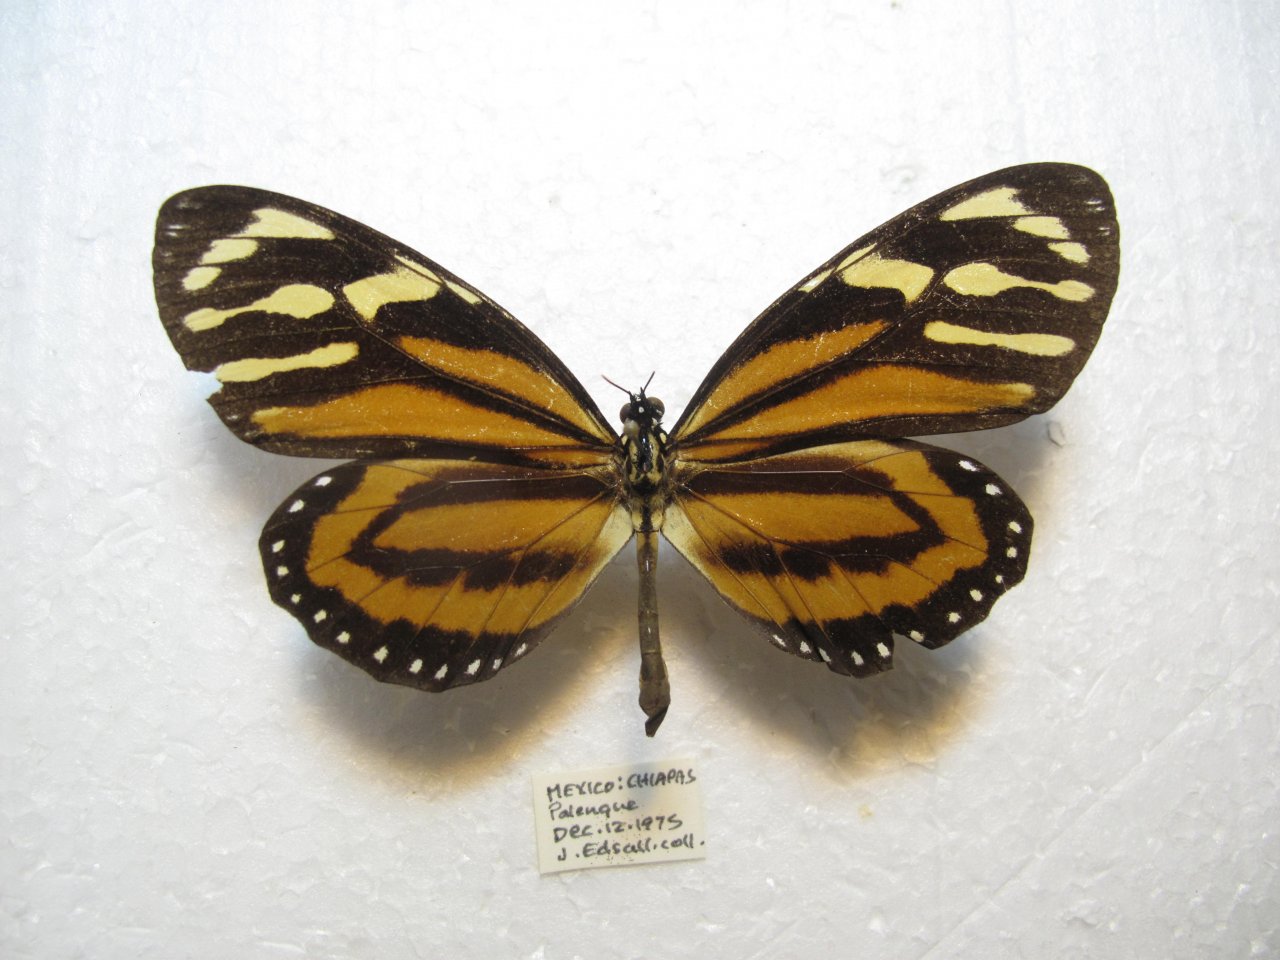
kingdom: Animalia
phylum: Arthropoda
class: Insecta
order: Lepidoptera
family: Nymphalidae
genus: Lycorea
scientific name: Lycorea cleobaea
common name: Tiger Mimic-Queen
